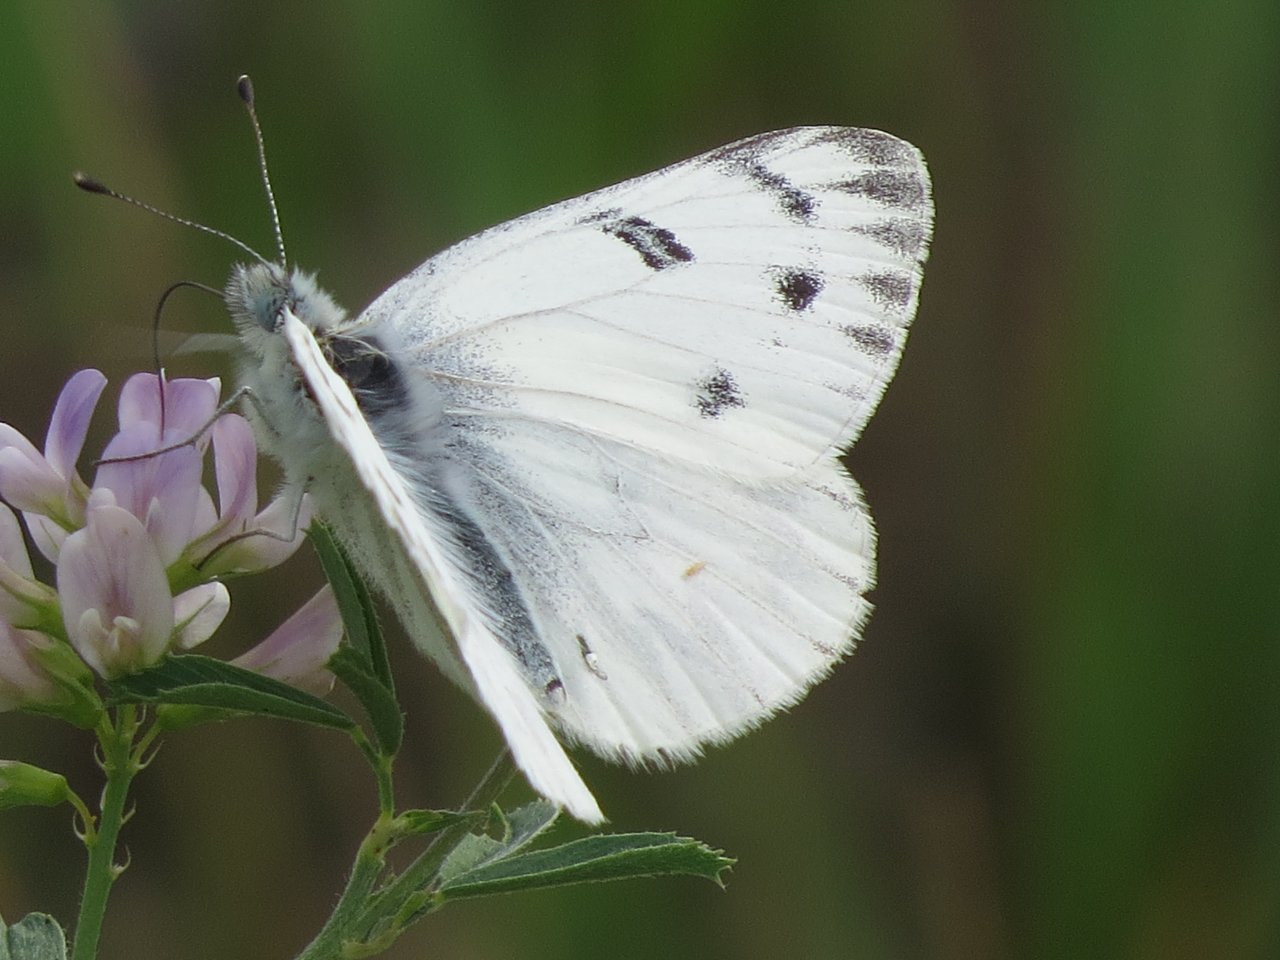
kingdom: Animalia
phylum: Arthropoda
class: Insecta
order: Lepidoptera
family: Pieridae
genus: Pontia
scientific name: Pontia occidentalis
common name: Western White
